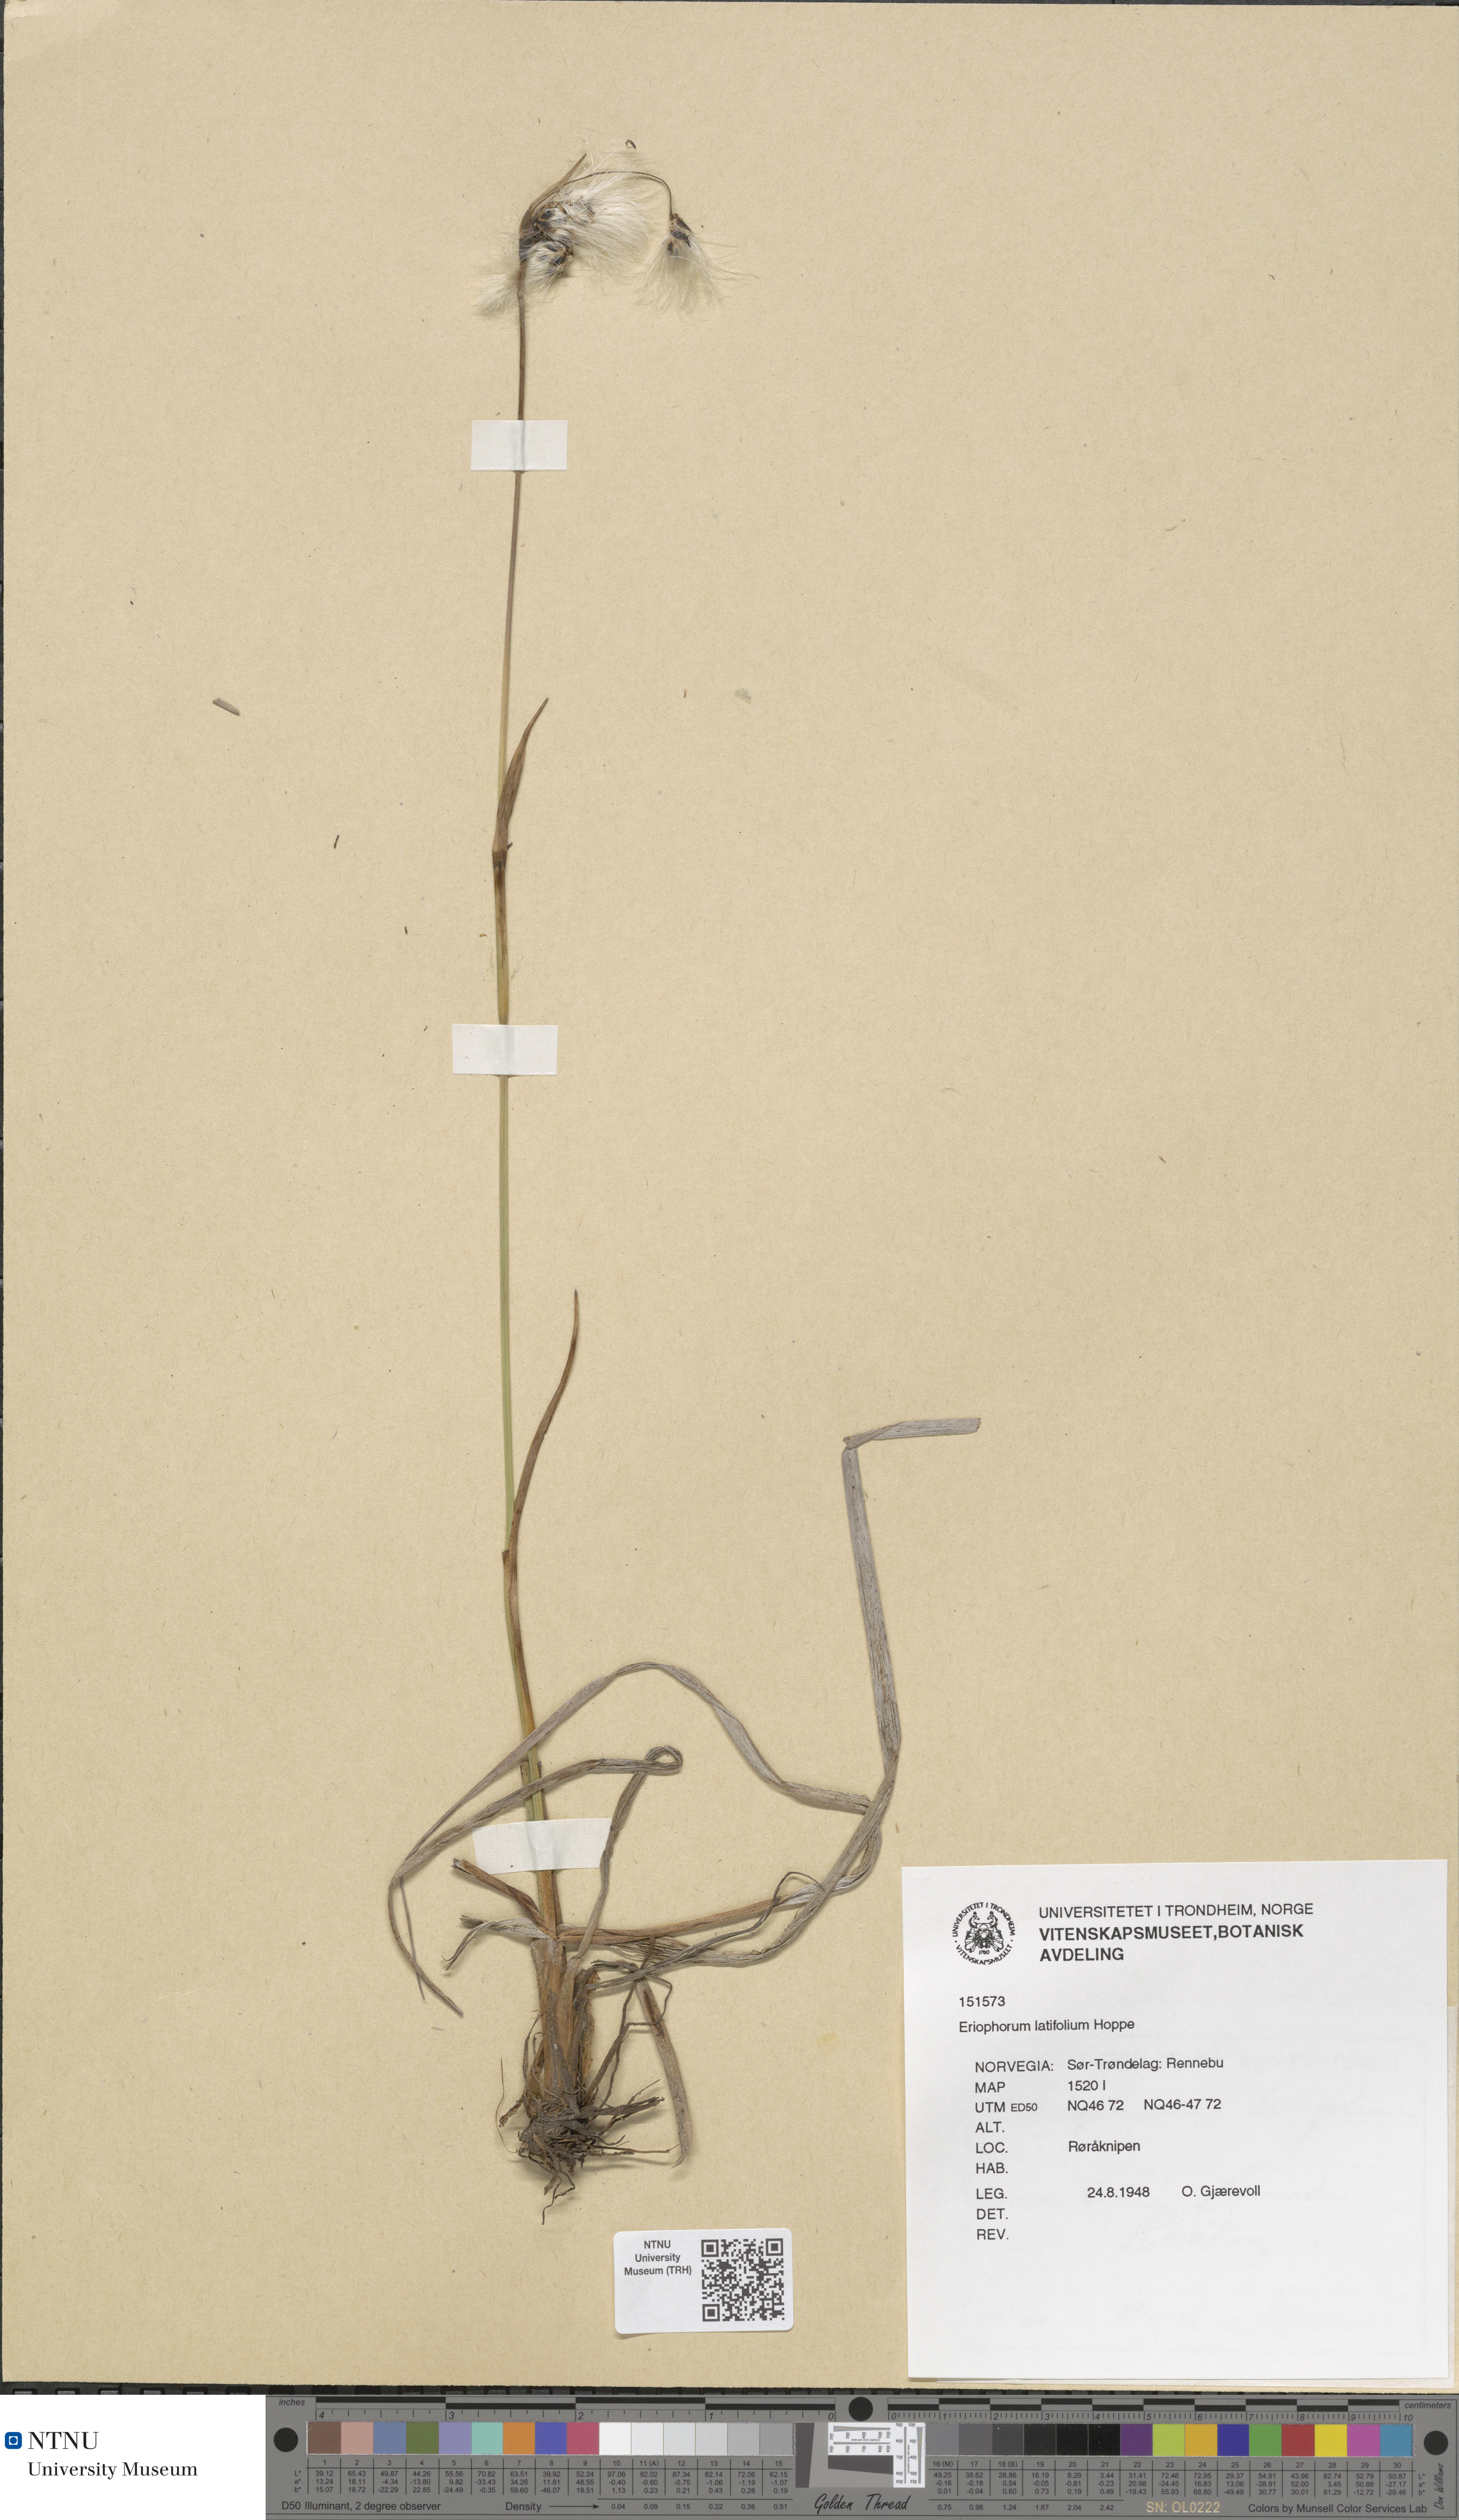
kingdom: Plantae
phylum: Tracheophyta
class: Liliopsida
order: Poales
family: Cyperaceae
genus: Eriophorum
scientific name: Eriophorum latifolium
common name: Broad-leaved cottongrass
